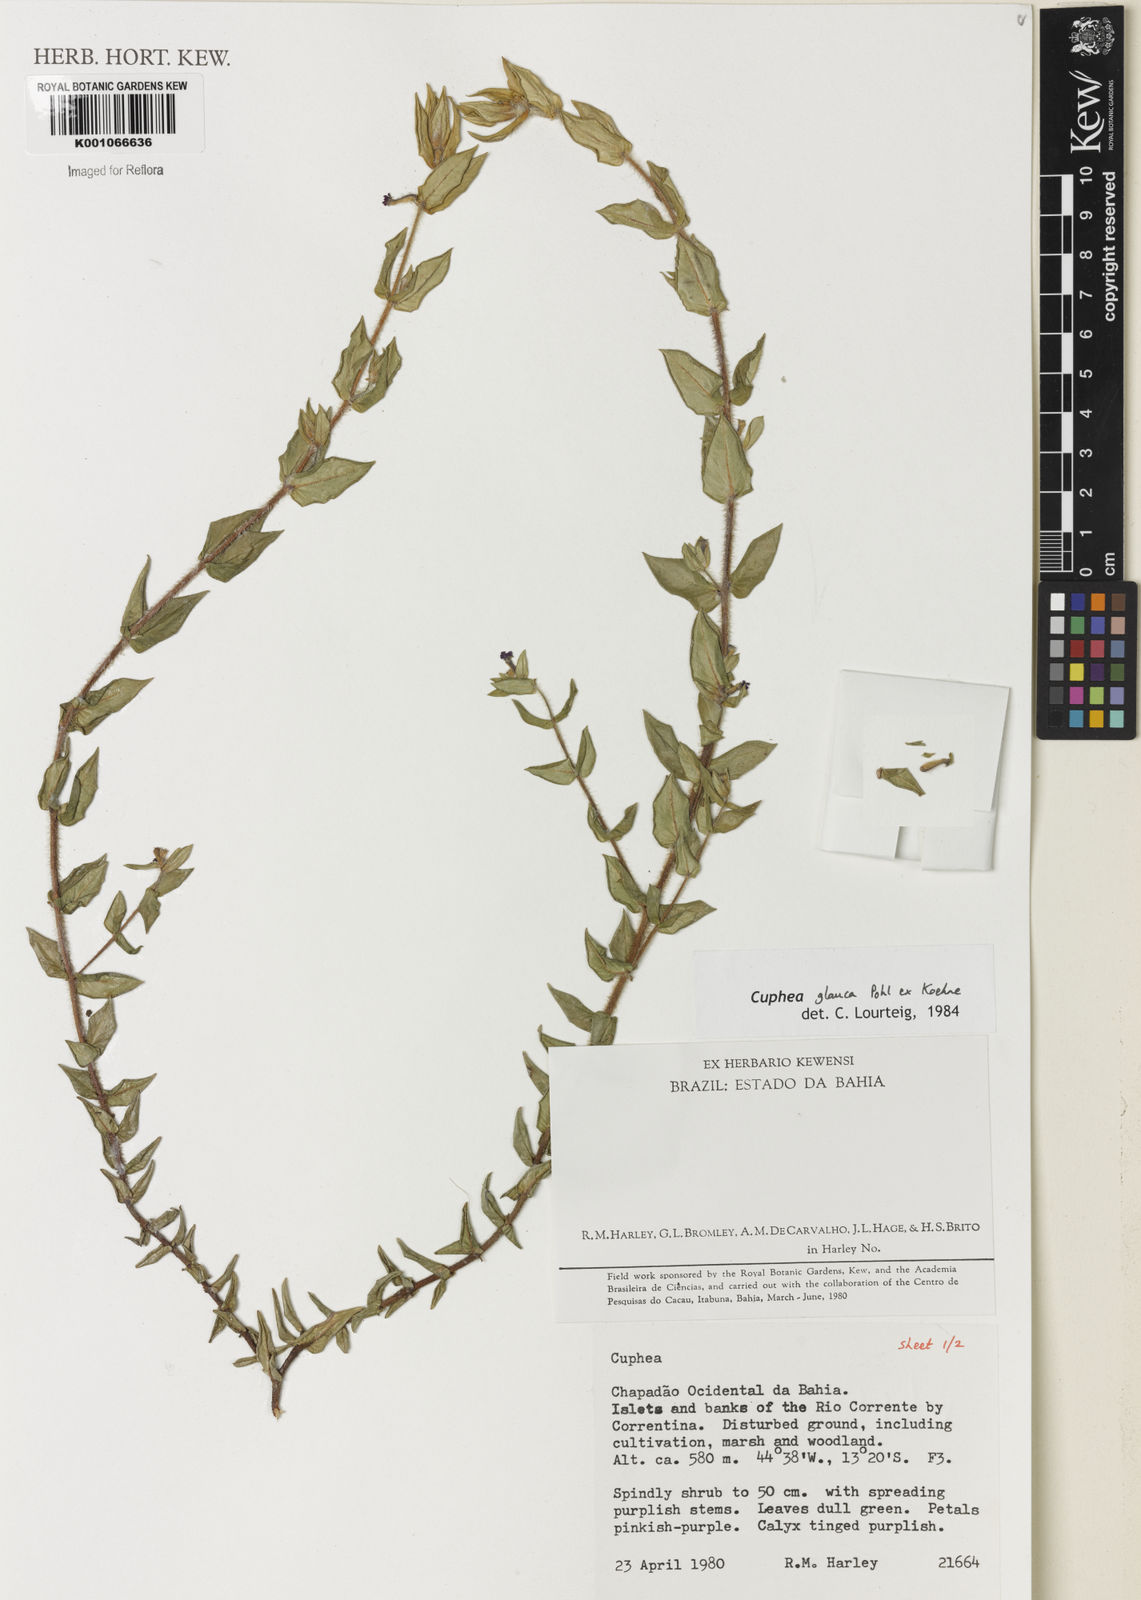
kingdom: Plantae
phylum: Tracheophyta
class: Magnoliopsida
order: Myrtales
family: Lythraceae
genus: Cuphea
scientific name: Cuphea glauca
